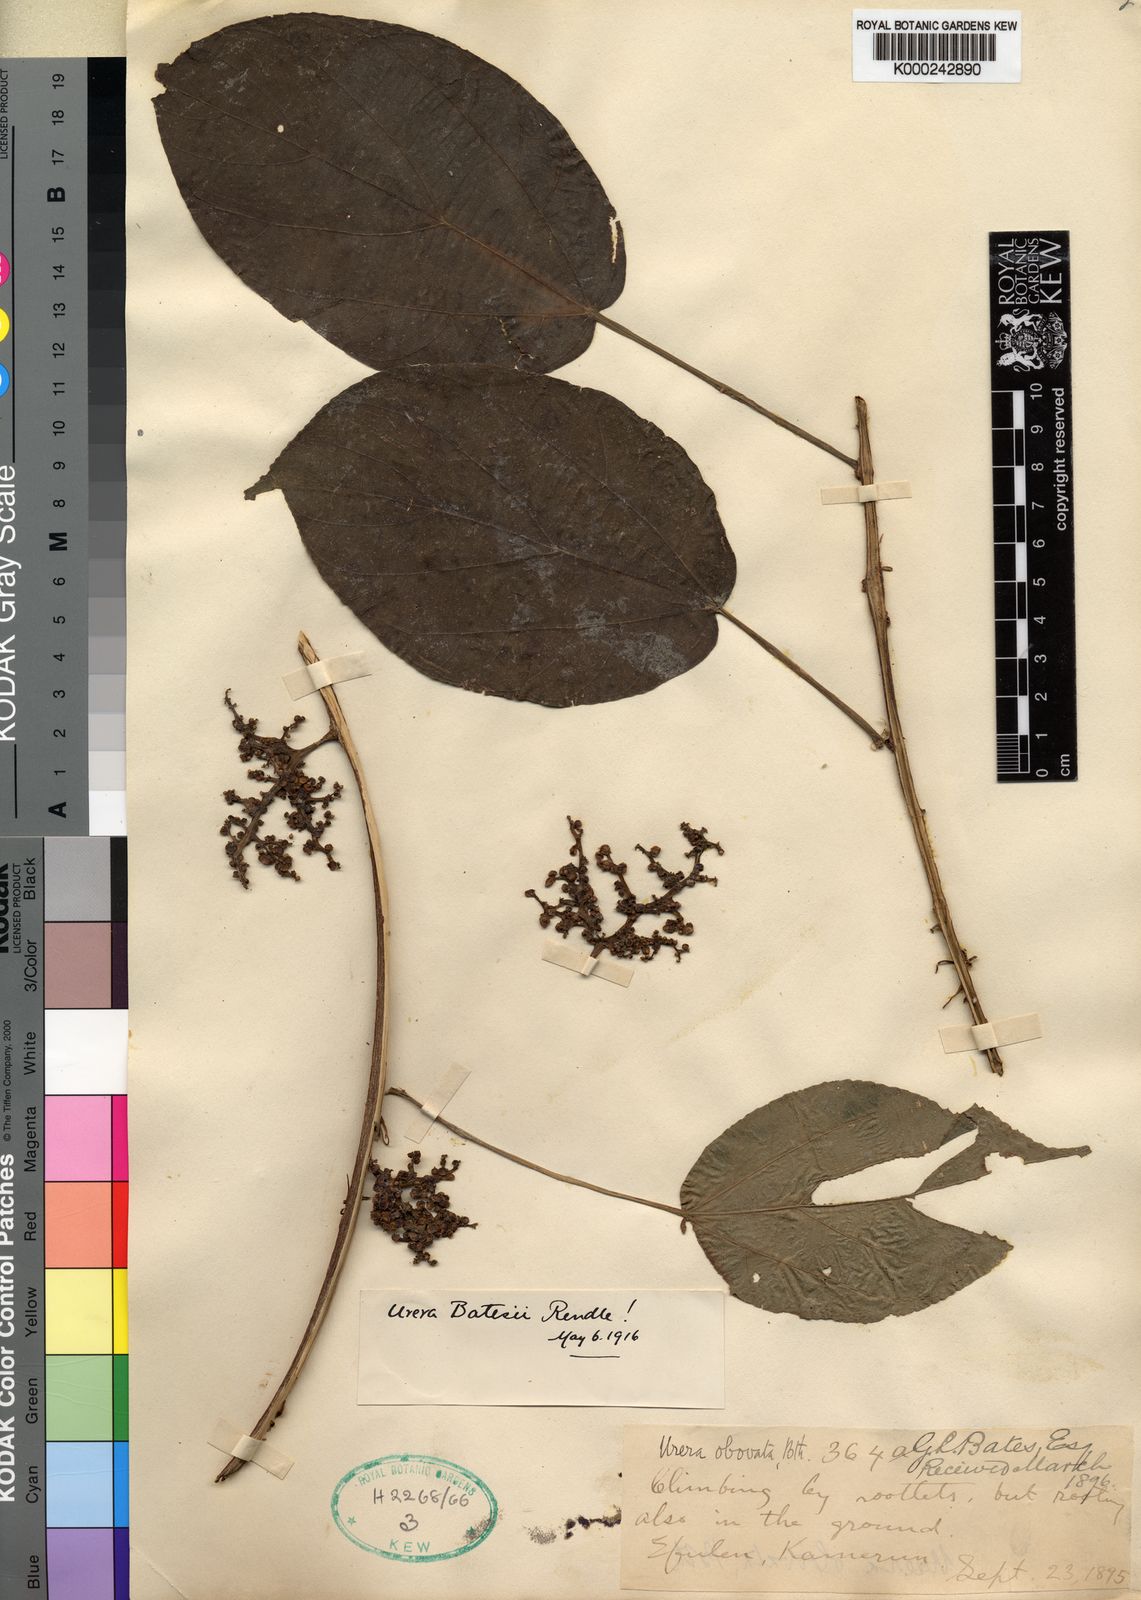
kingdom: Plantae
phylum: Tracheophyta
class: Magnoliopsida
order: Rosales
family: Urticaceae
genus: Scepocarpus
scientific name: Scepocarpus
